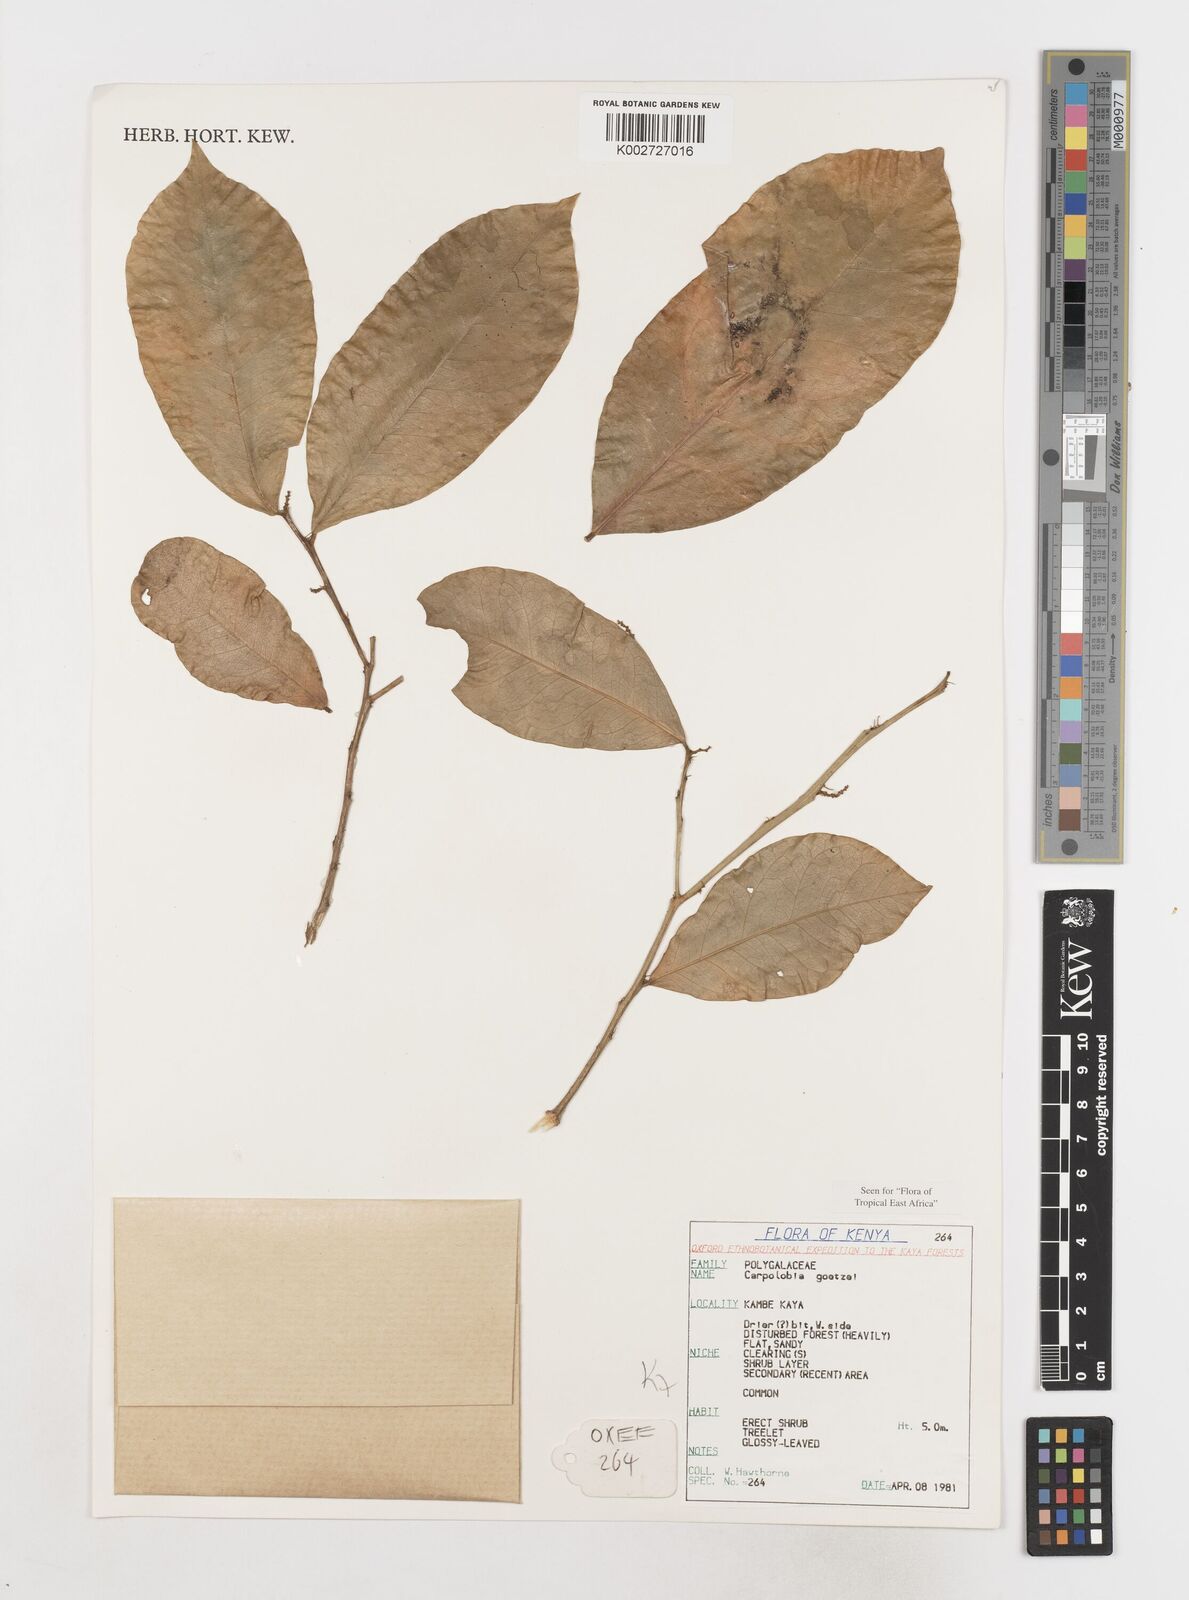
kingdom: Plantae
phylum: Tracheophyta
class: Magnoliopsida
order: Fabales
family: Polygalaceae
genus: Carpolobia
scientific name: Carpolobia goetzei
